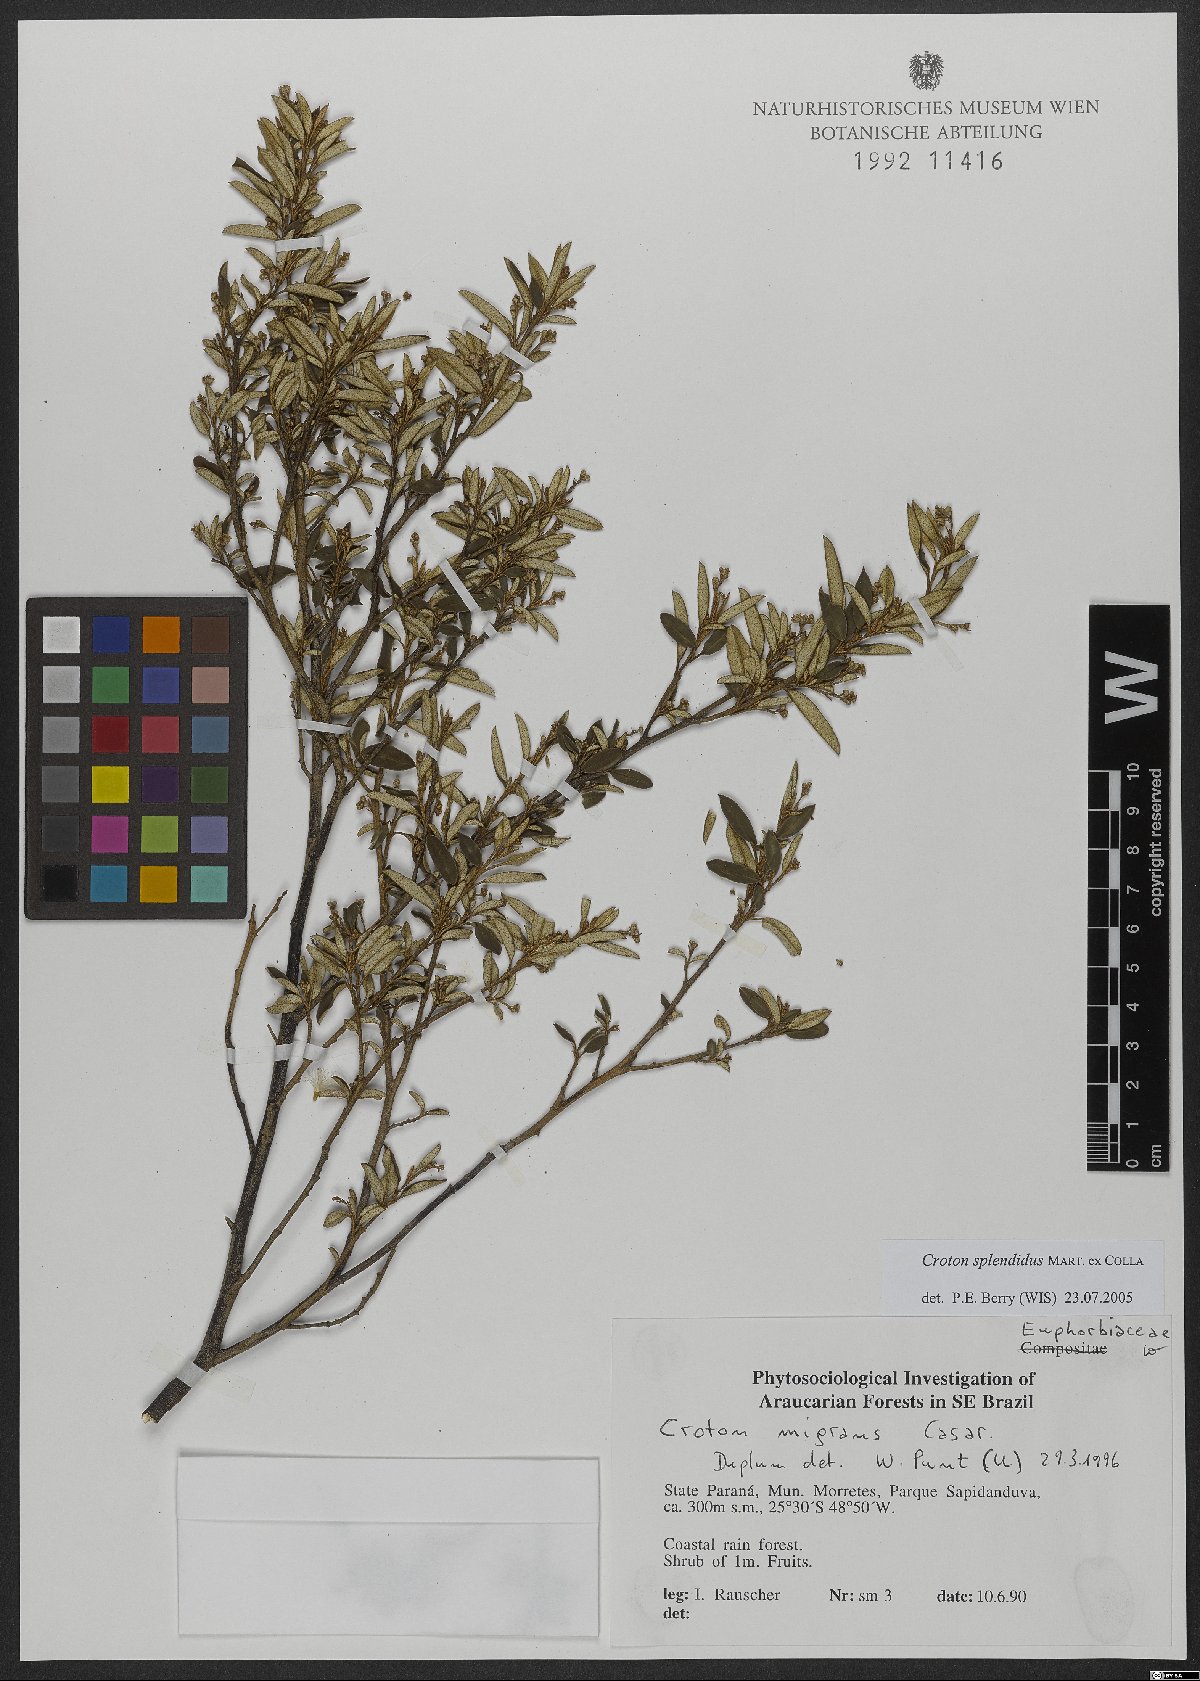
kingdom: Plantae
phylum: Tracheophyta
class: Magnoliopsida
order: Malpighiales
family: Euphorbiaceae
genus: Croton
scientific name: Croton splendidus
